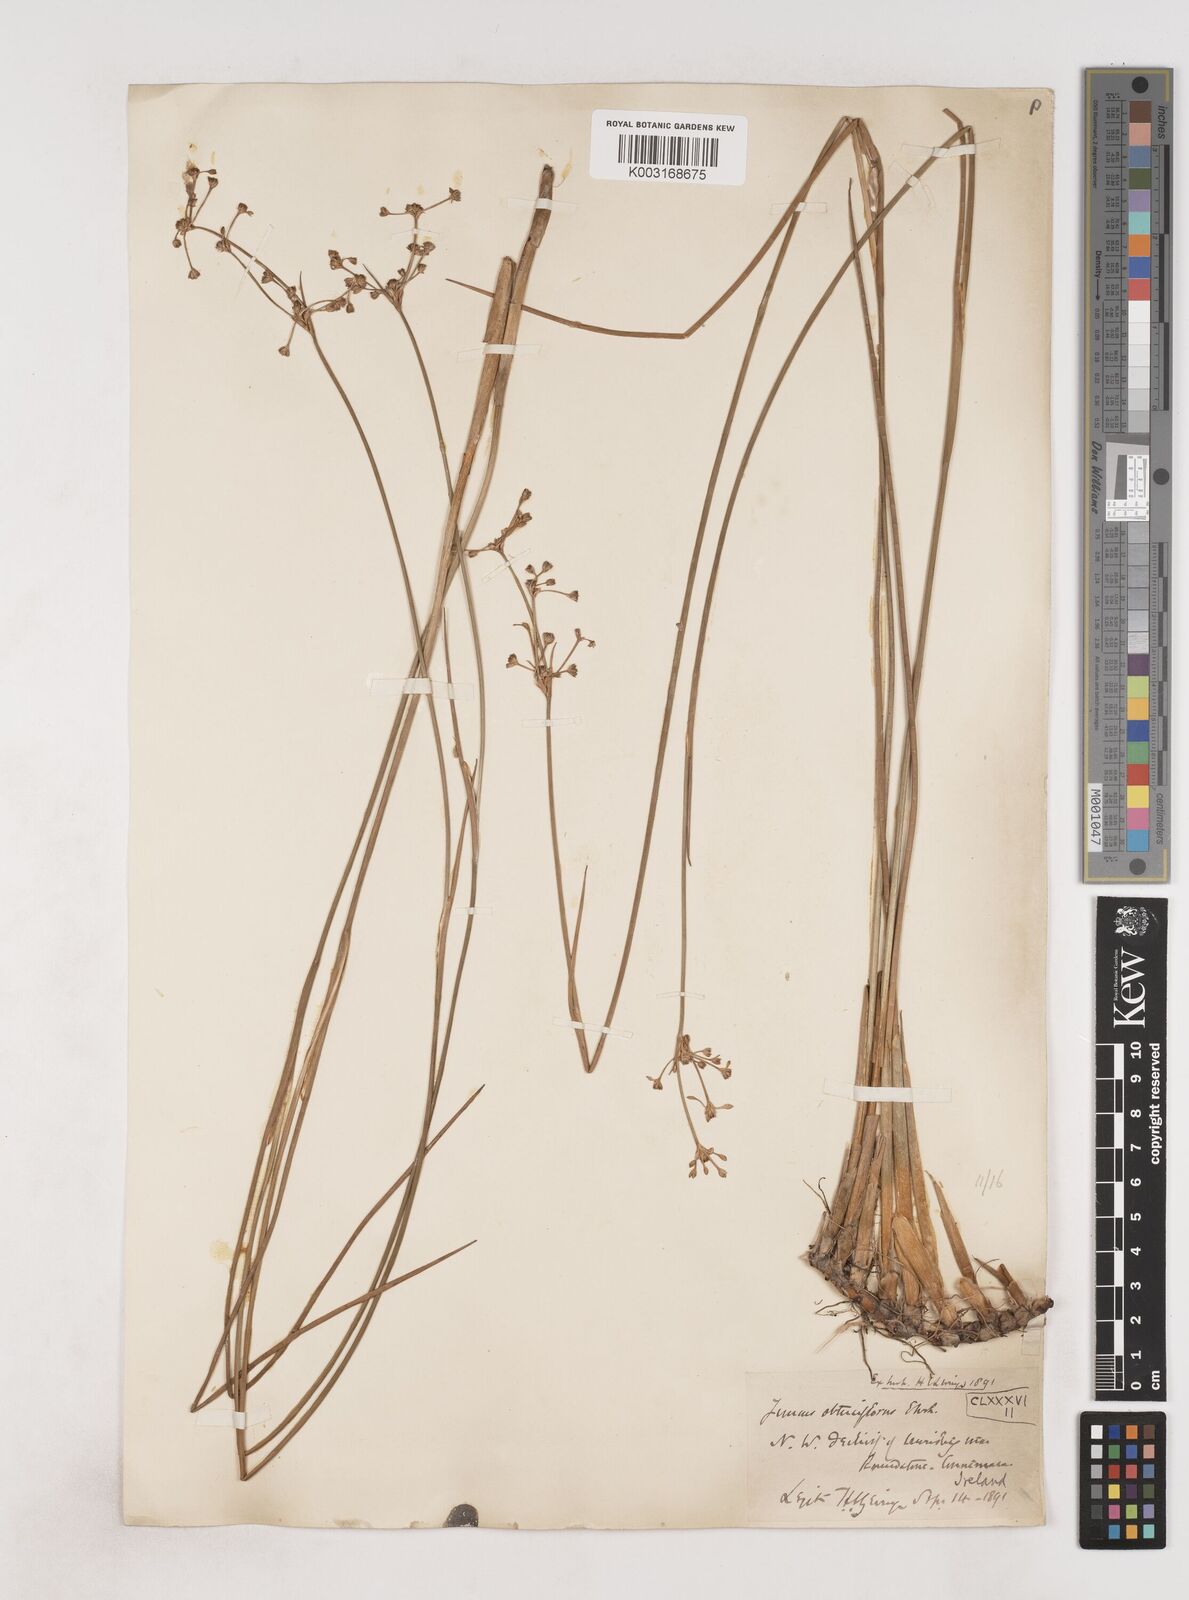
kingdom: Plantae
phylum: Tracheophyta
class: Liliopsida
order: Poales
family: Juncaceae
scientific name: Juncaceae
